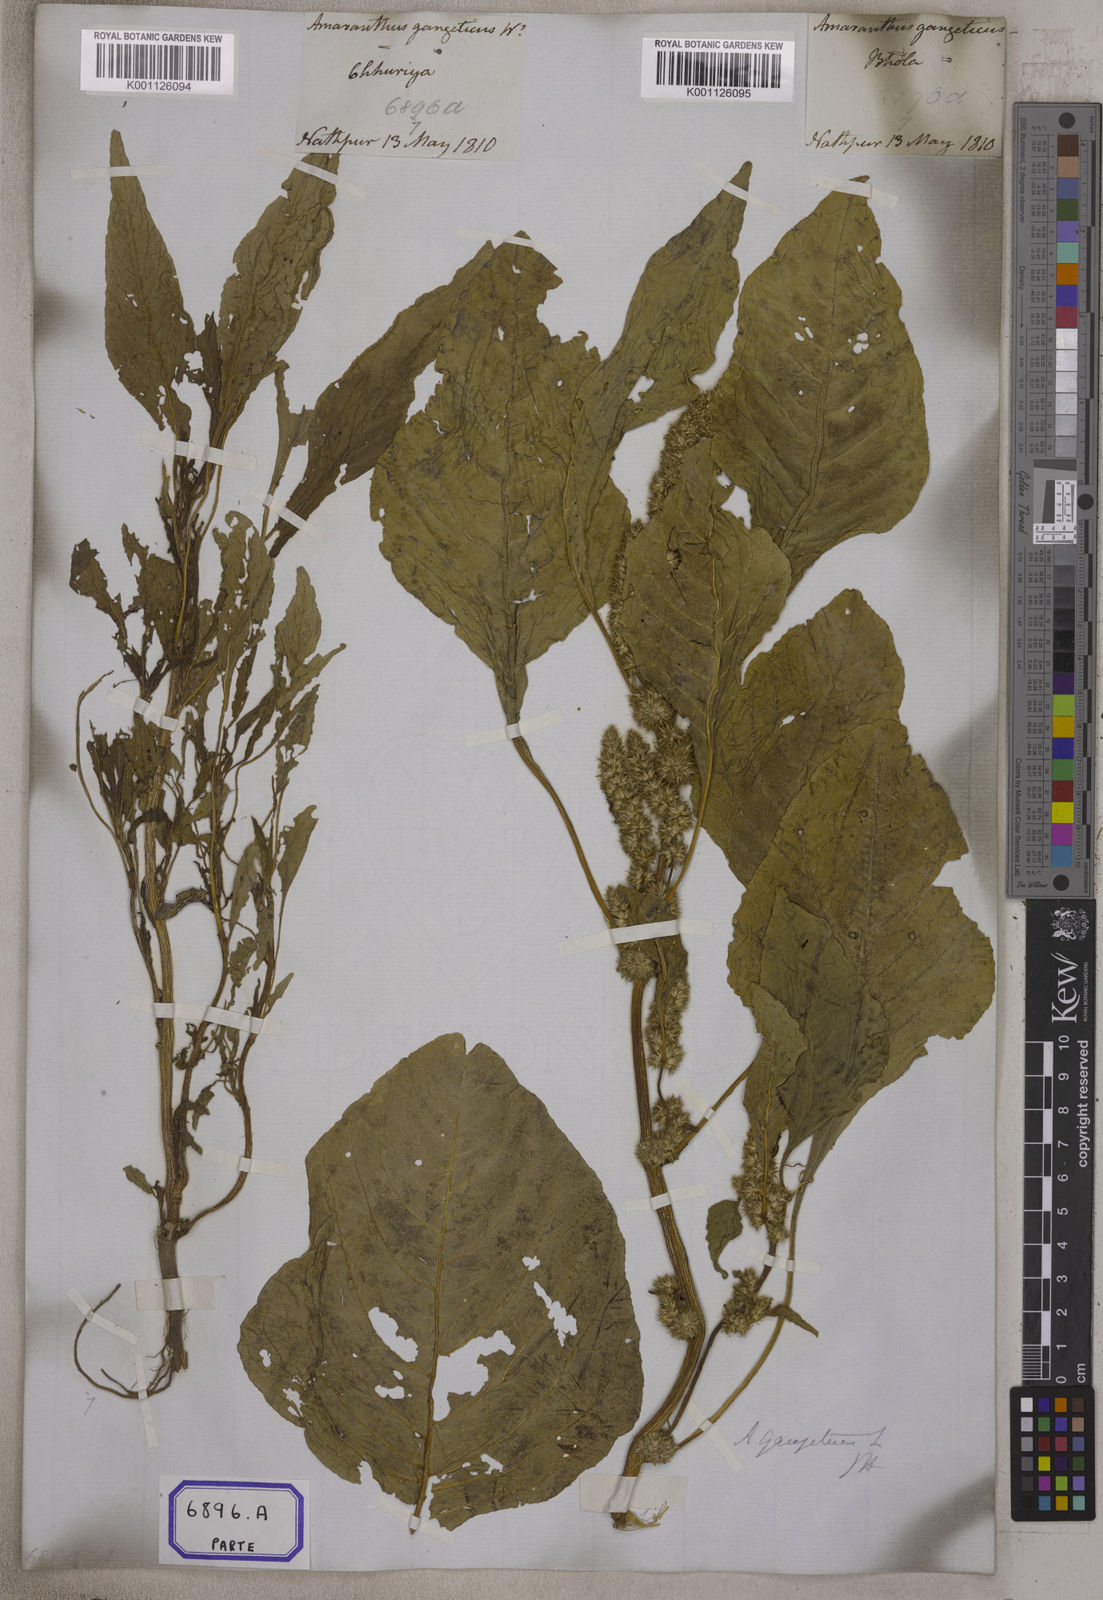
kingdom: Plantae
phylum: Tracheophyta
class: Magnoliopsida
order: Caryophyllales
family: Amaranthaceae
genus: Amaranthus
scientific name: Amaranthus blitum
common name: Purple amaranth
